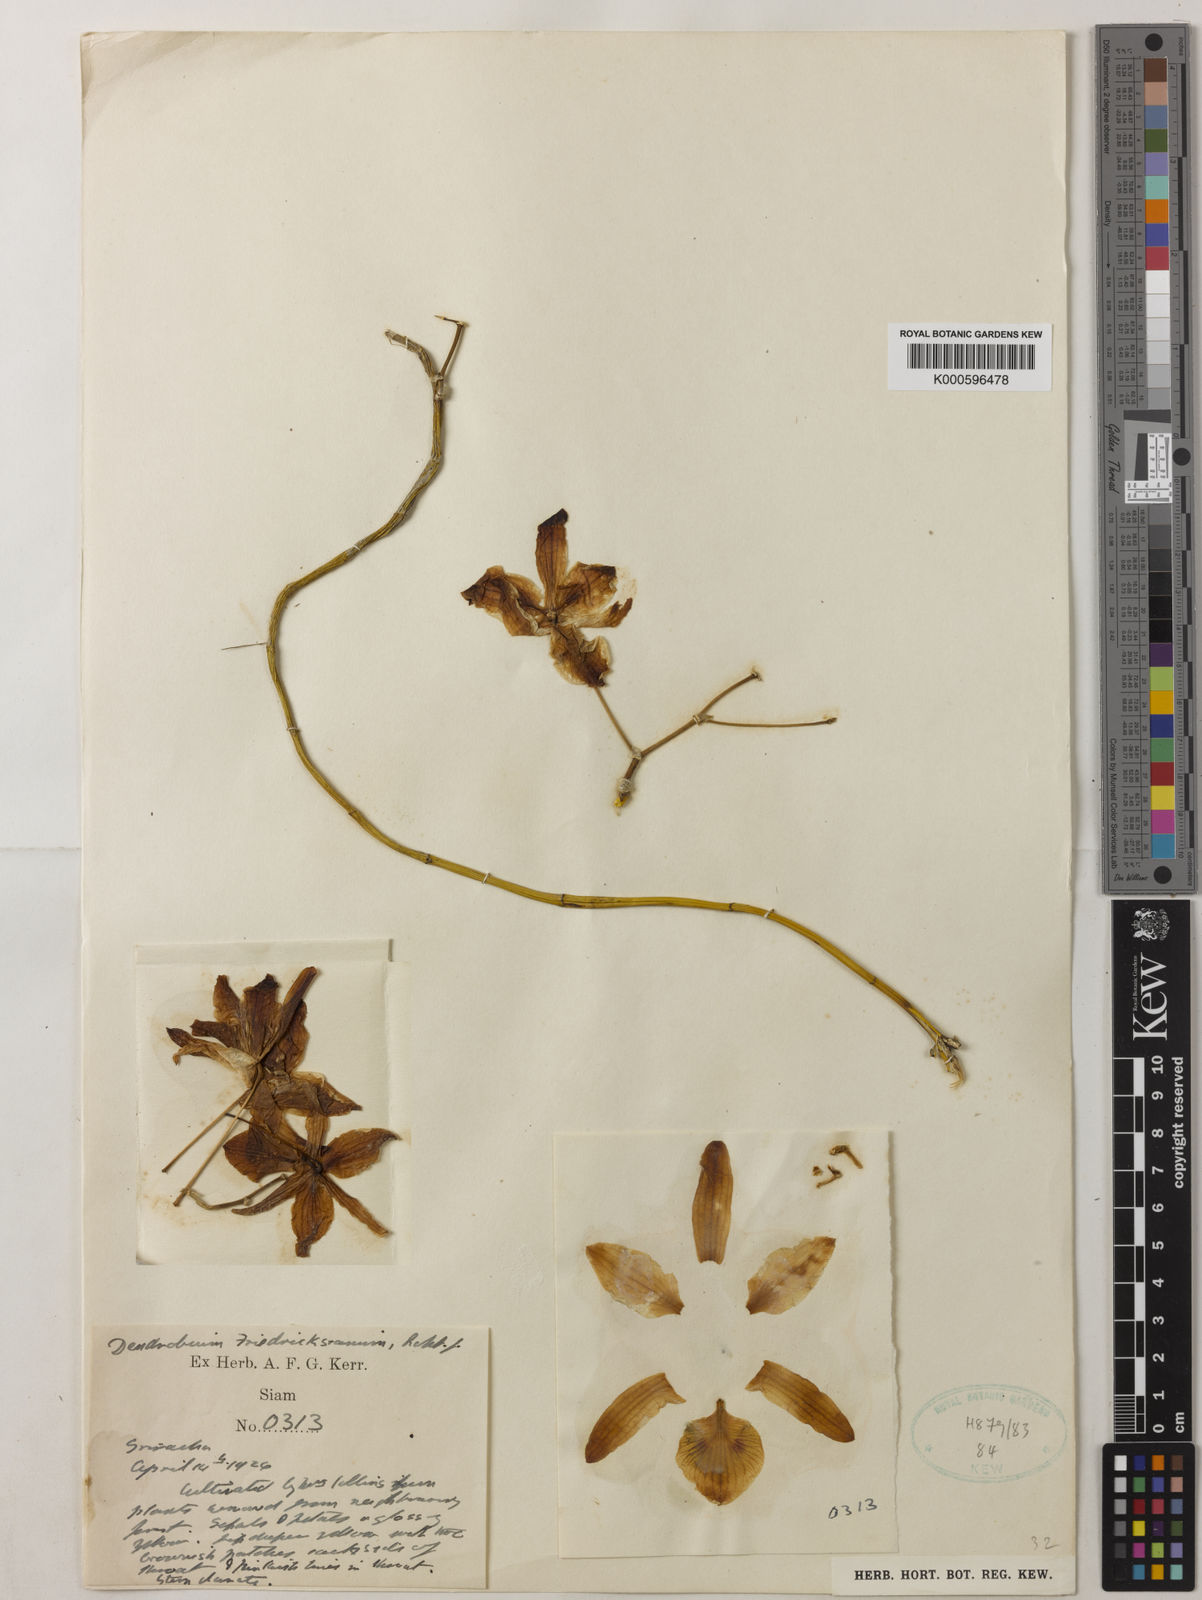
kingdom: Plantae
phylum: Tracheophyta
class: Liliopsida
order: Asparagales
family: Orchidaceae
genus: Dendrobium
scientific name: Dendrobium friedericksianum
